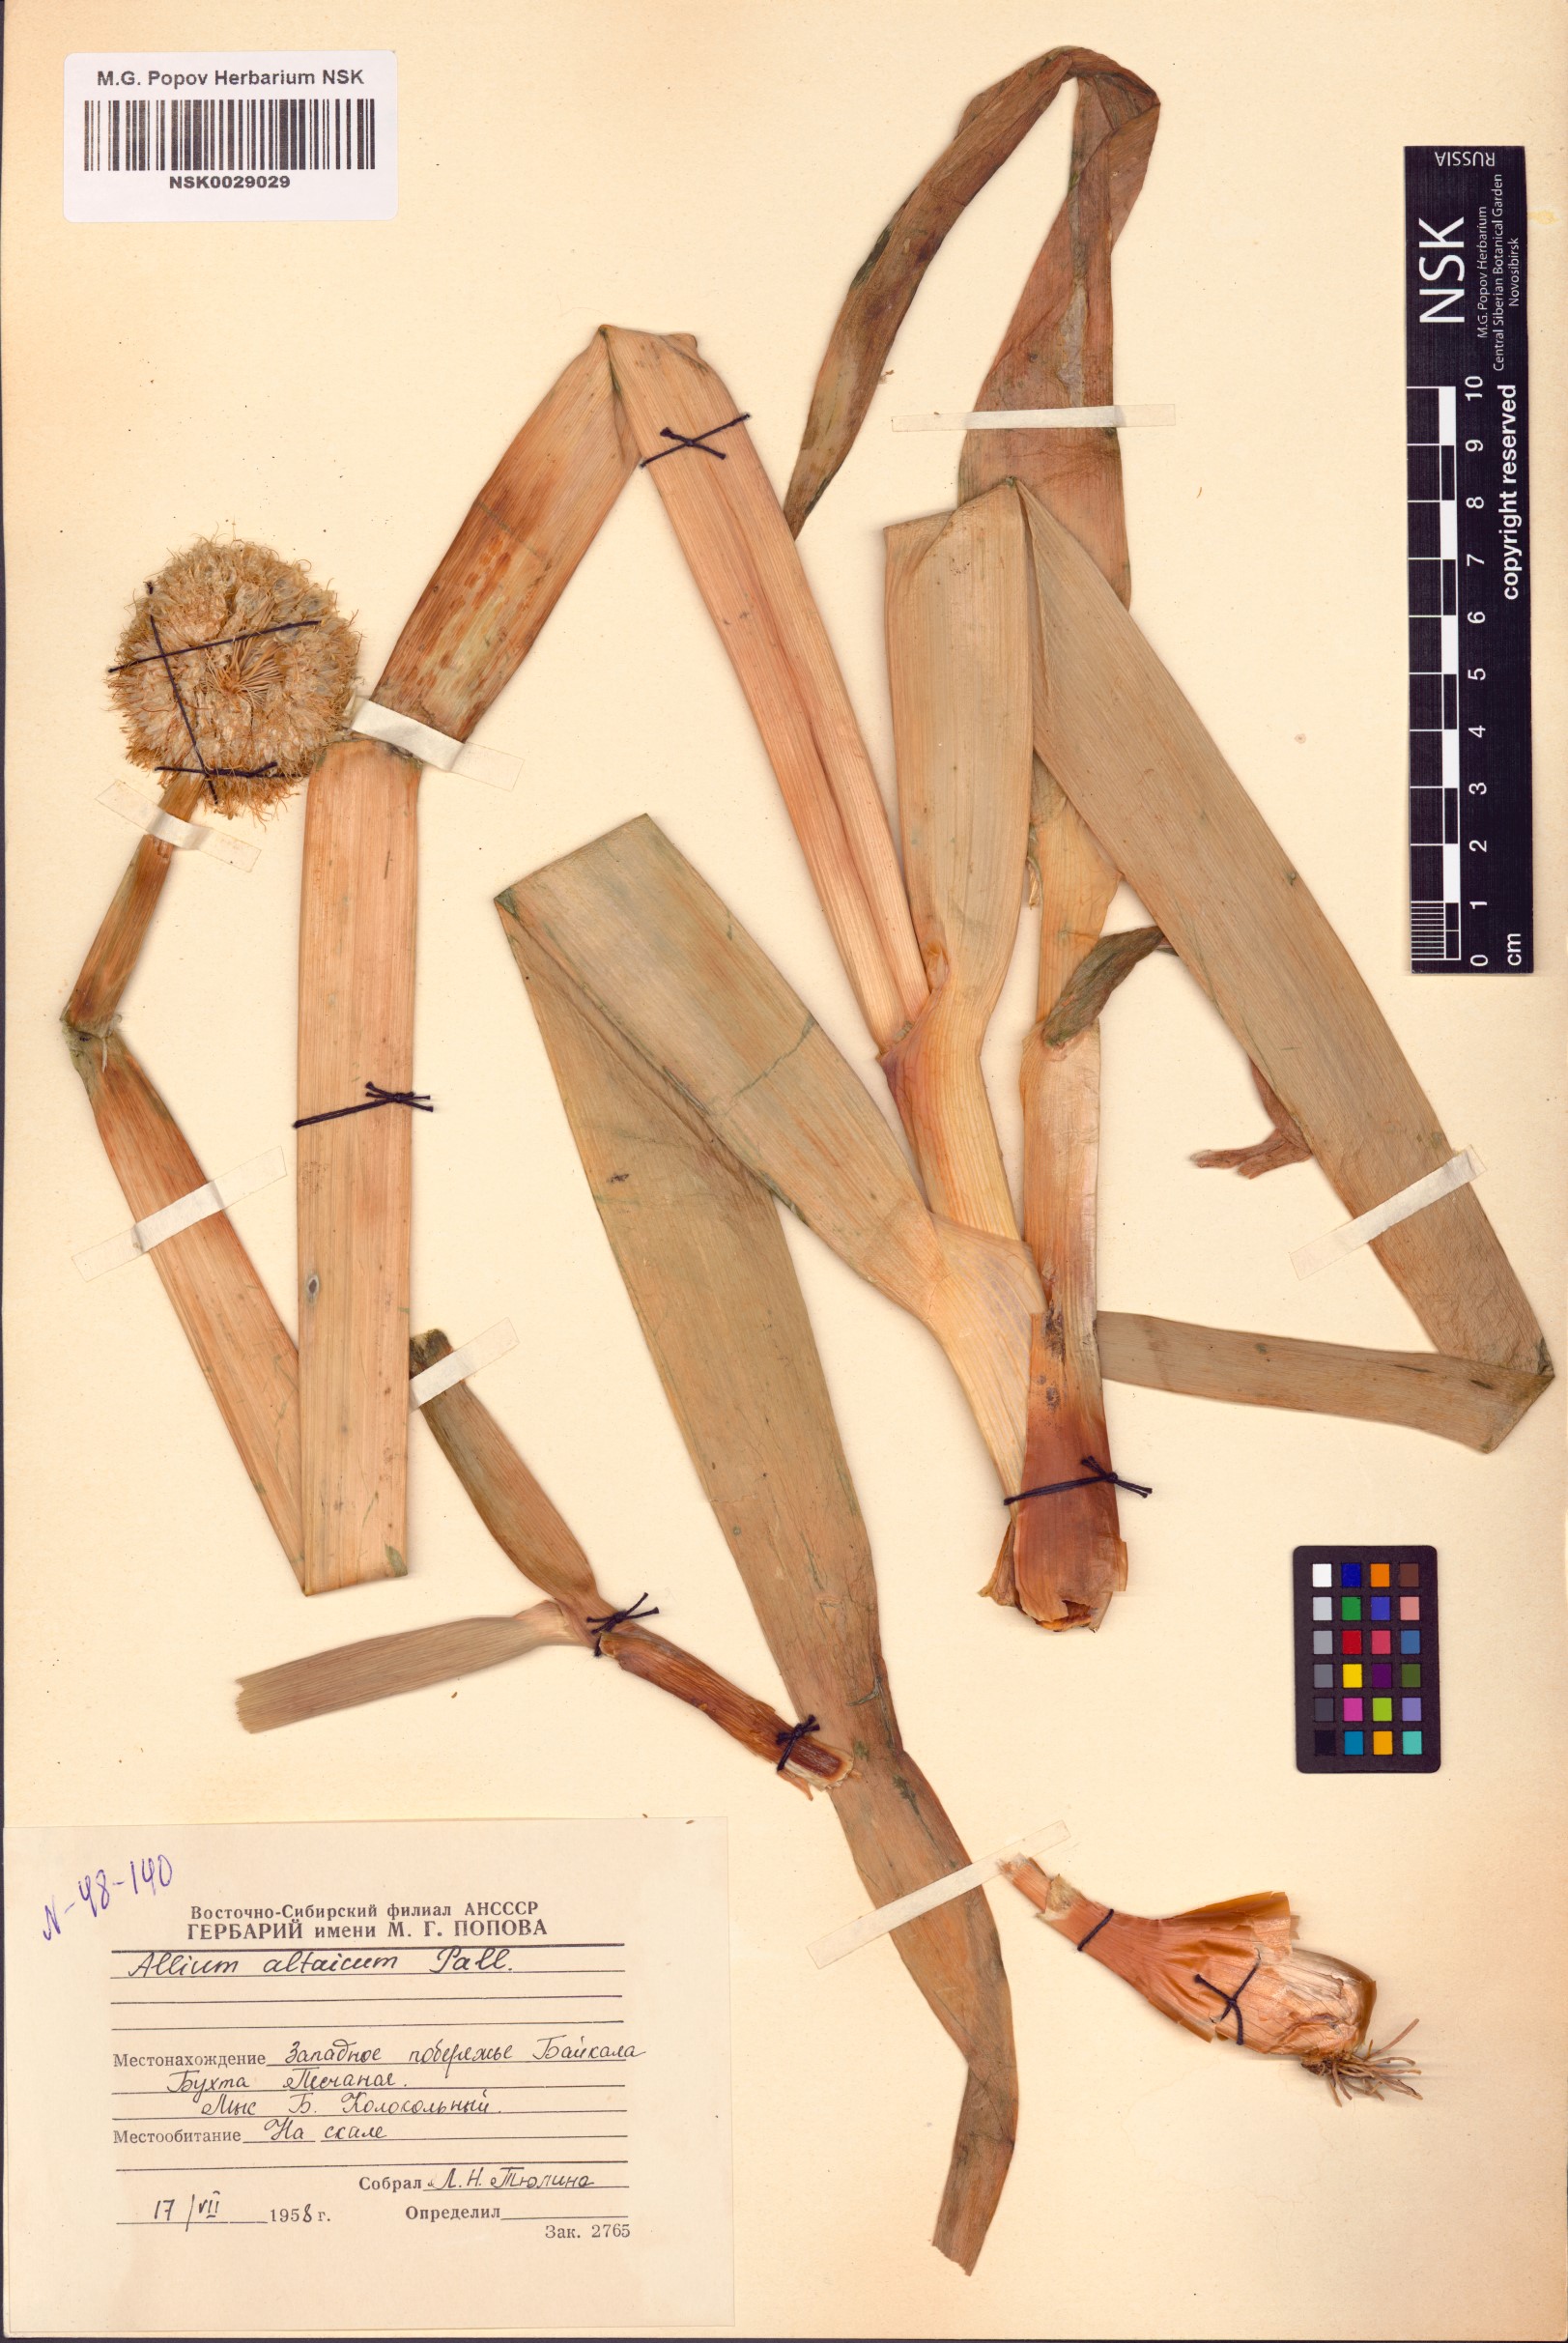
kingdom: Plantae
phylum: Tracheophyta
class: Liliopsida
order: Asparagales
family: Amaryllidaceae
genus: Allium
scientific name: Allium altaicum
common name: Altai onion
